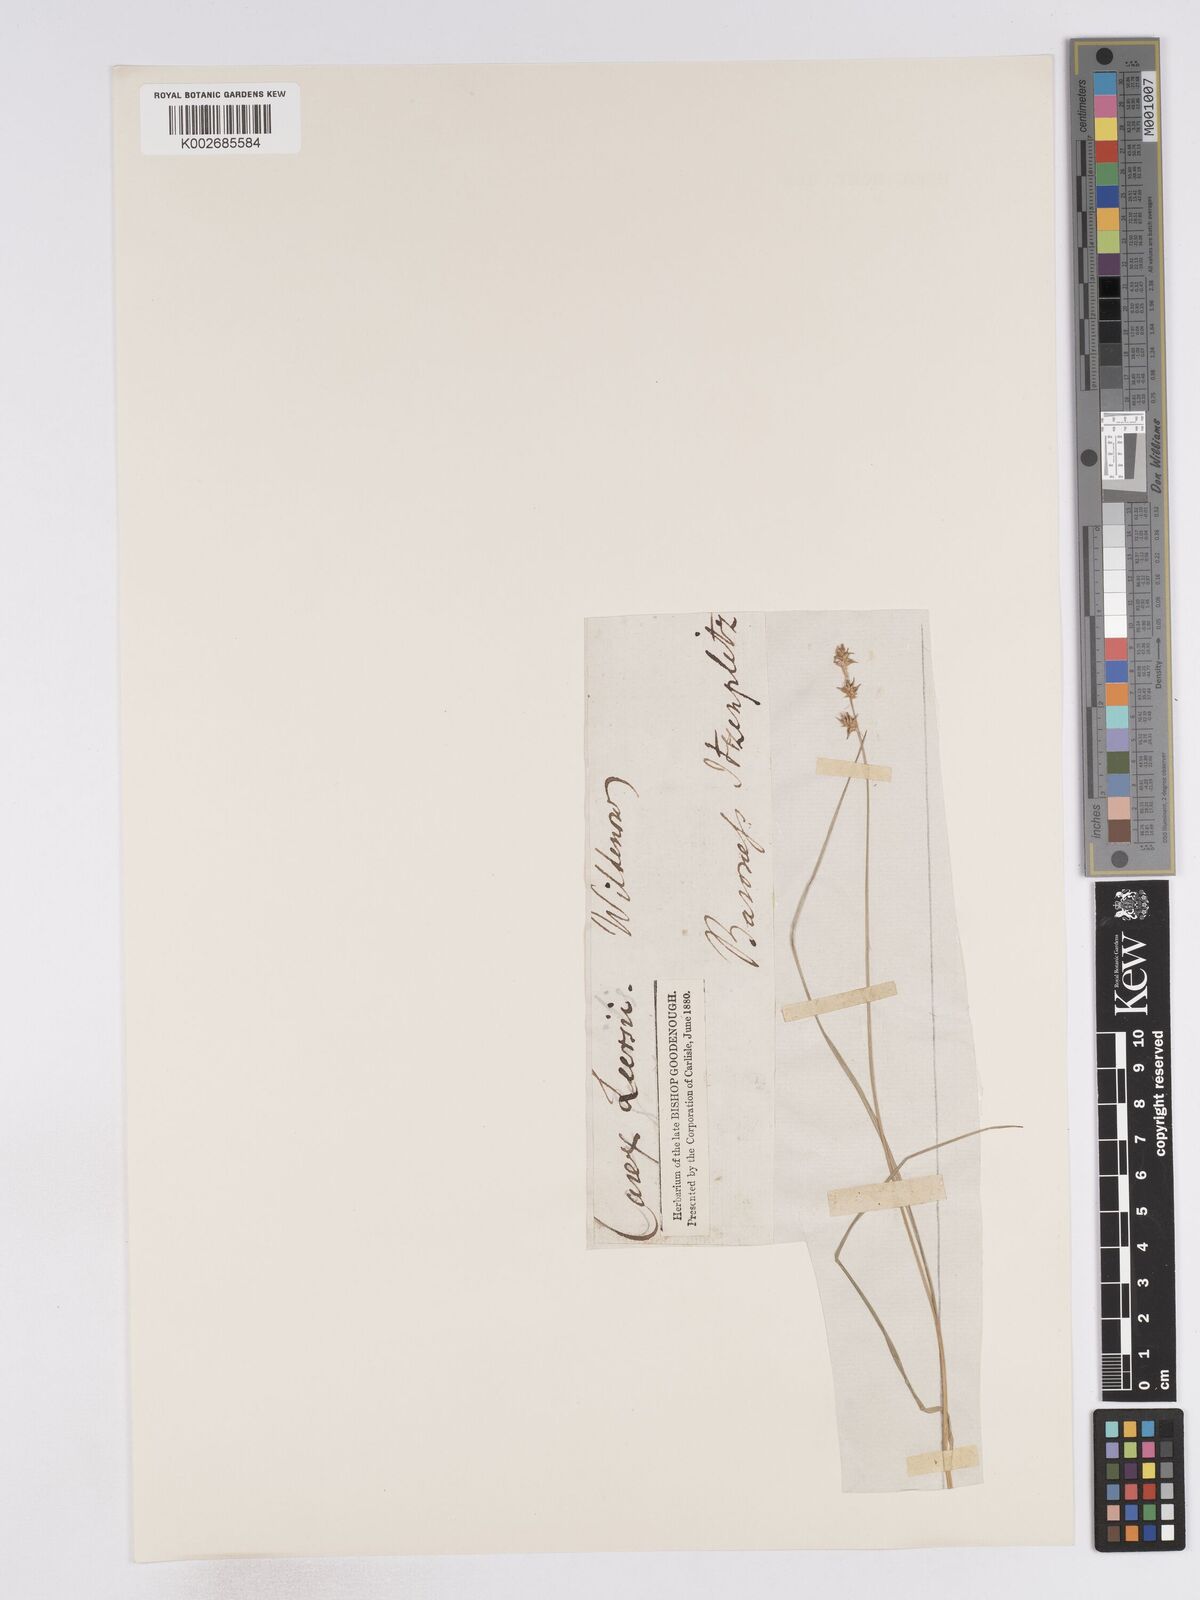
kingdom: Plantae
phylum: Tracheophyta
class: Liliopsida
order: Poales
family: Cyperaceae
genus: Carex
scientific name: Carex echinata
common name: Star sedge
